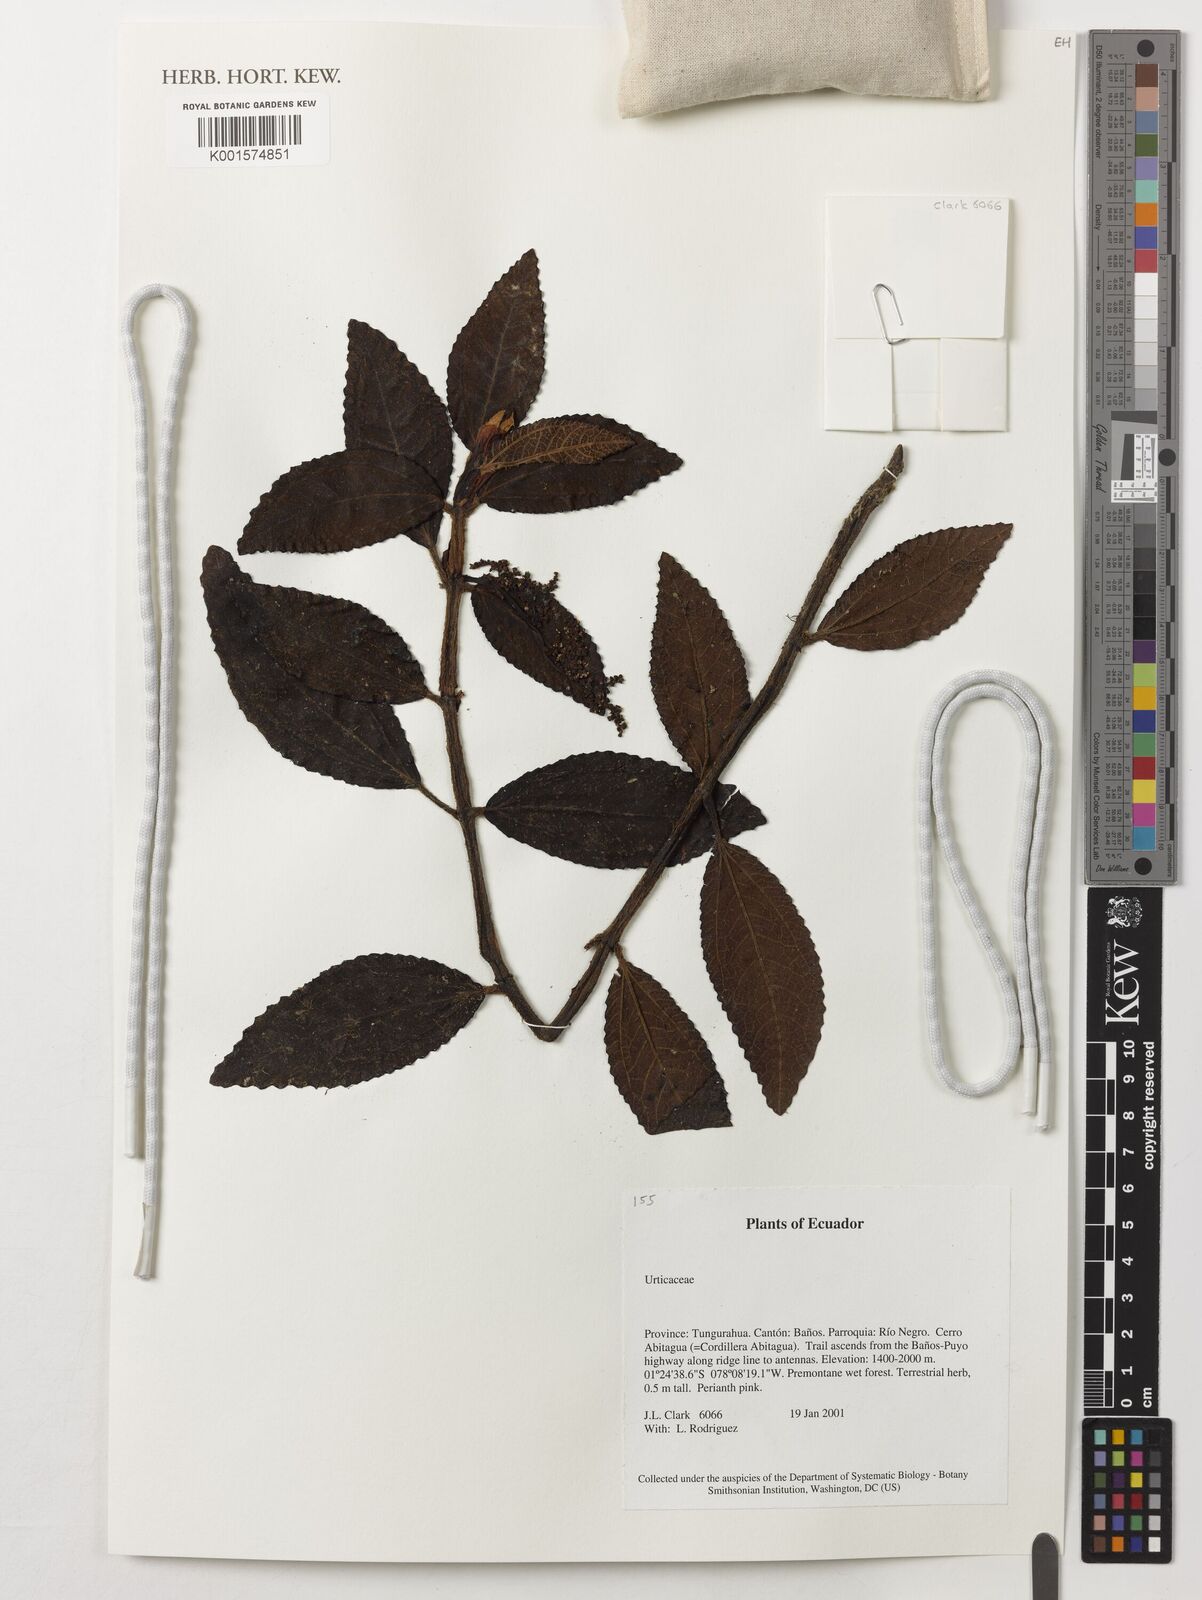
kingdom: Plantae
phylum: Tracheophyta
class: Magnoliopsida
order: Rosales
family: Urticaceae
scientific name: Urticaceae
